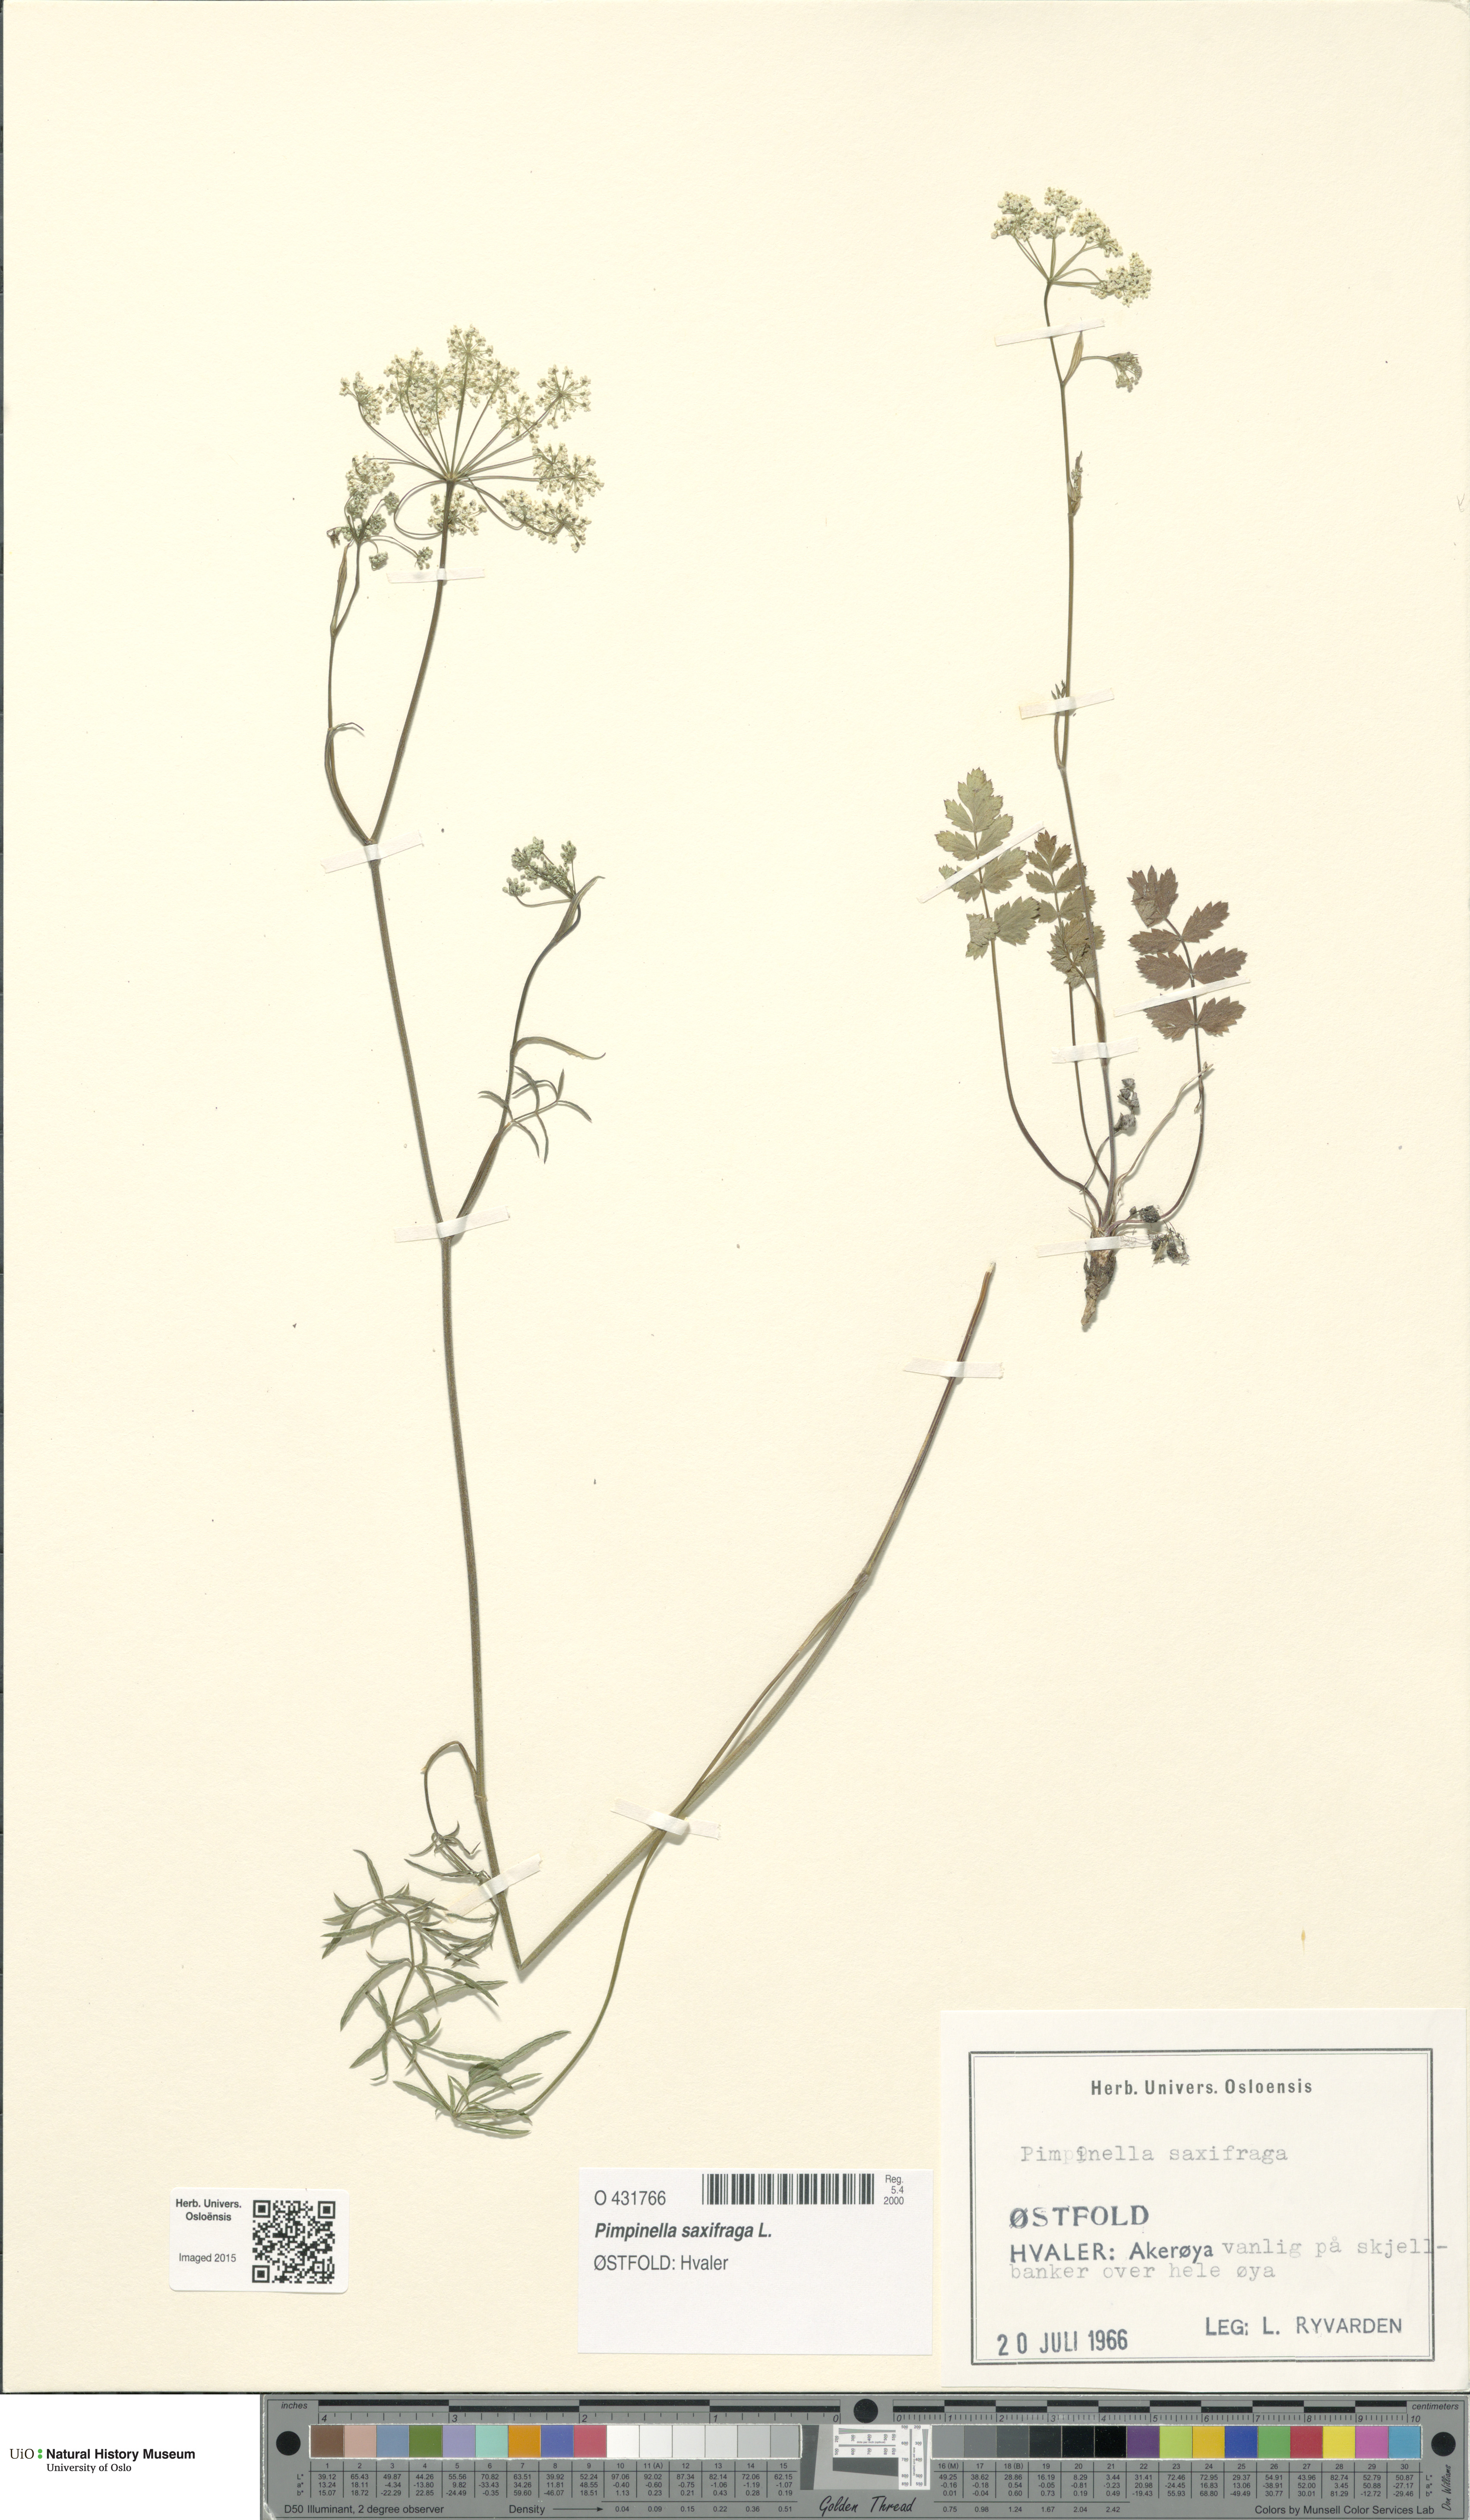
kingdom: Plantae
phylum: Tracheophyta
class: Magnoliopsida
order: Apiales
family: Apiaceae
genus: Pimpinella
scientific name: Pimpinella saxifraga
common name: Burnet-saxifrage
